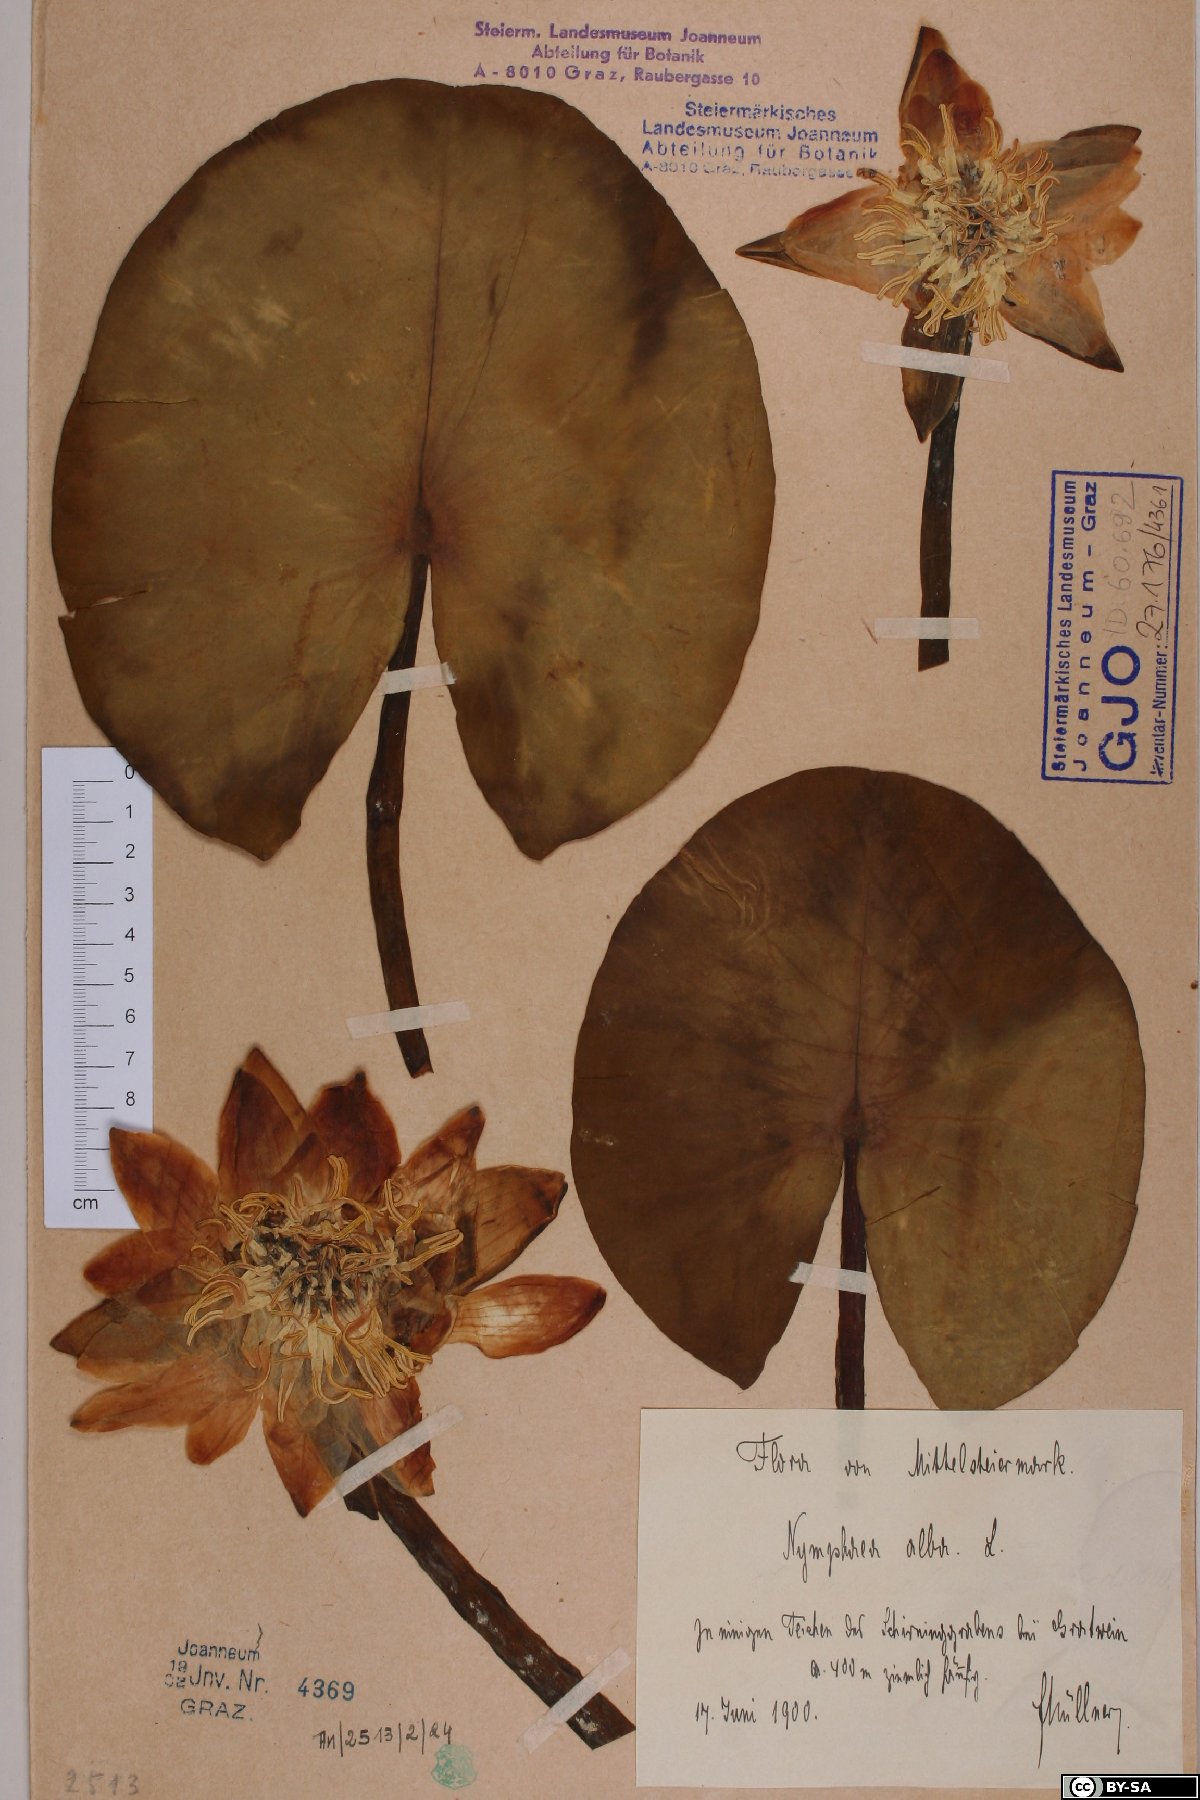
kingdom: Plantae
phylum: Tracheophyta
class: Magnoliopsida
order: Nymphaeales
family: Nymphaeaceae
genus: Nymphaea
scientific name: Nymphaea alba
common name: White water-lily
